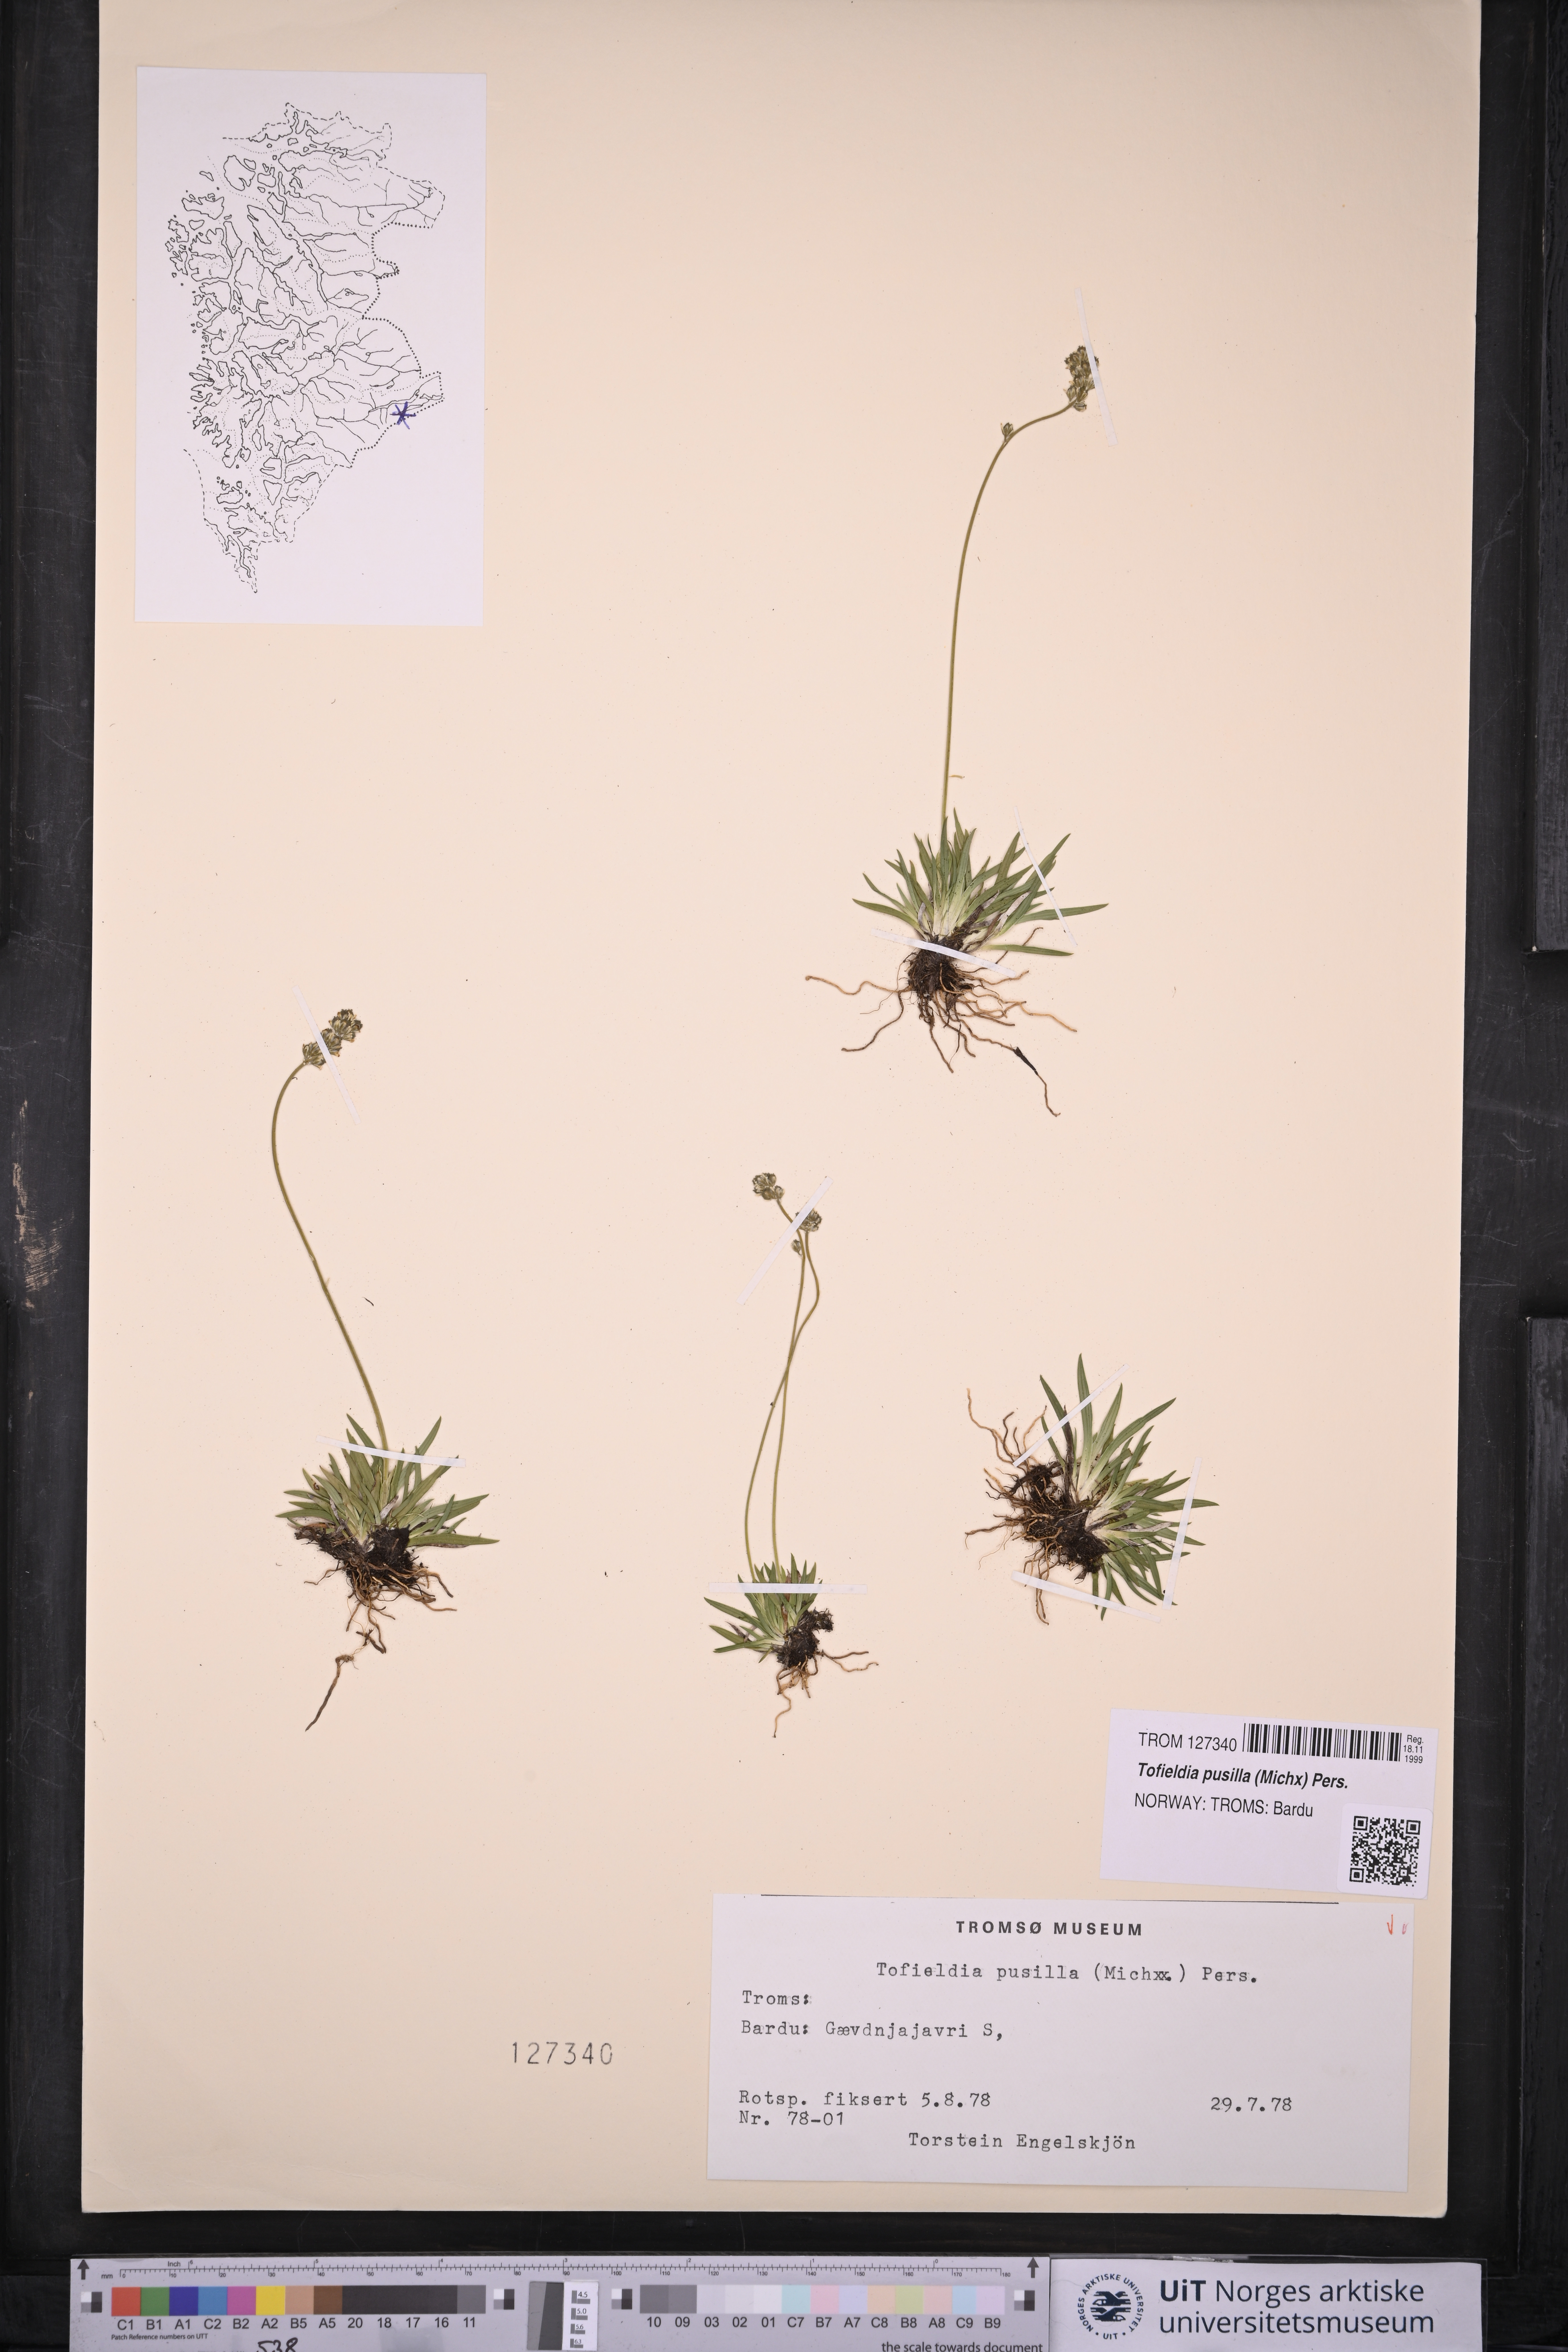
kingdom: Plantae
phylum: Tracheophyta
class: Liliopsida
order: Alismatales
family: Tofieldiaceae
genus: Tofieldia
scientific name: Tofieldia pusilla
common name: Scottish false asphodel
